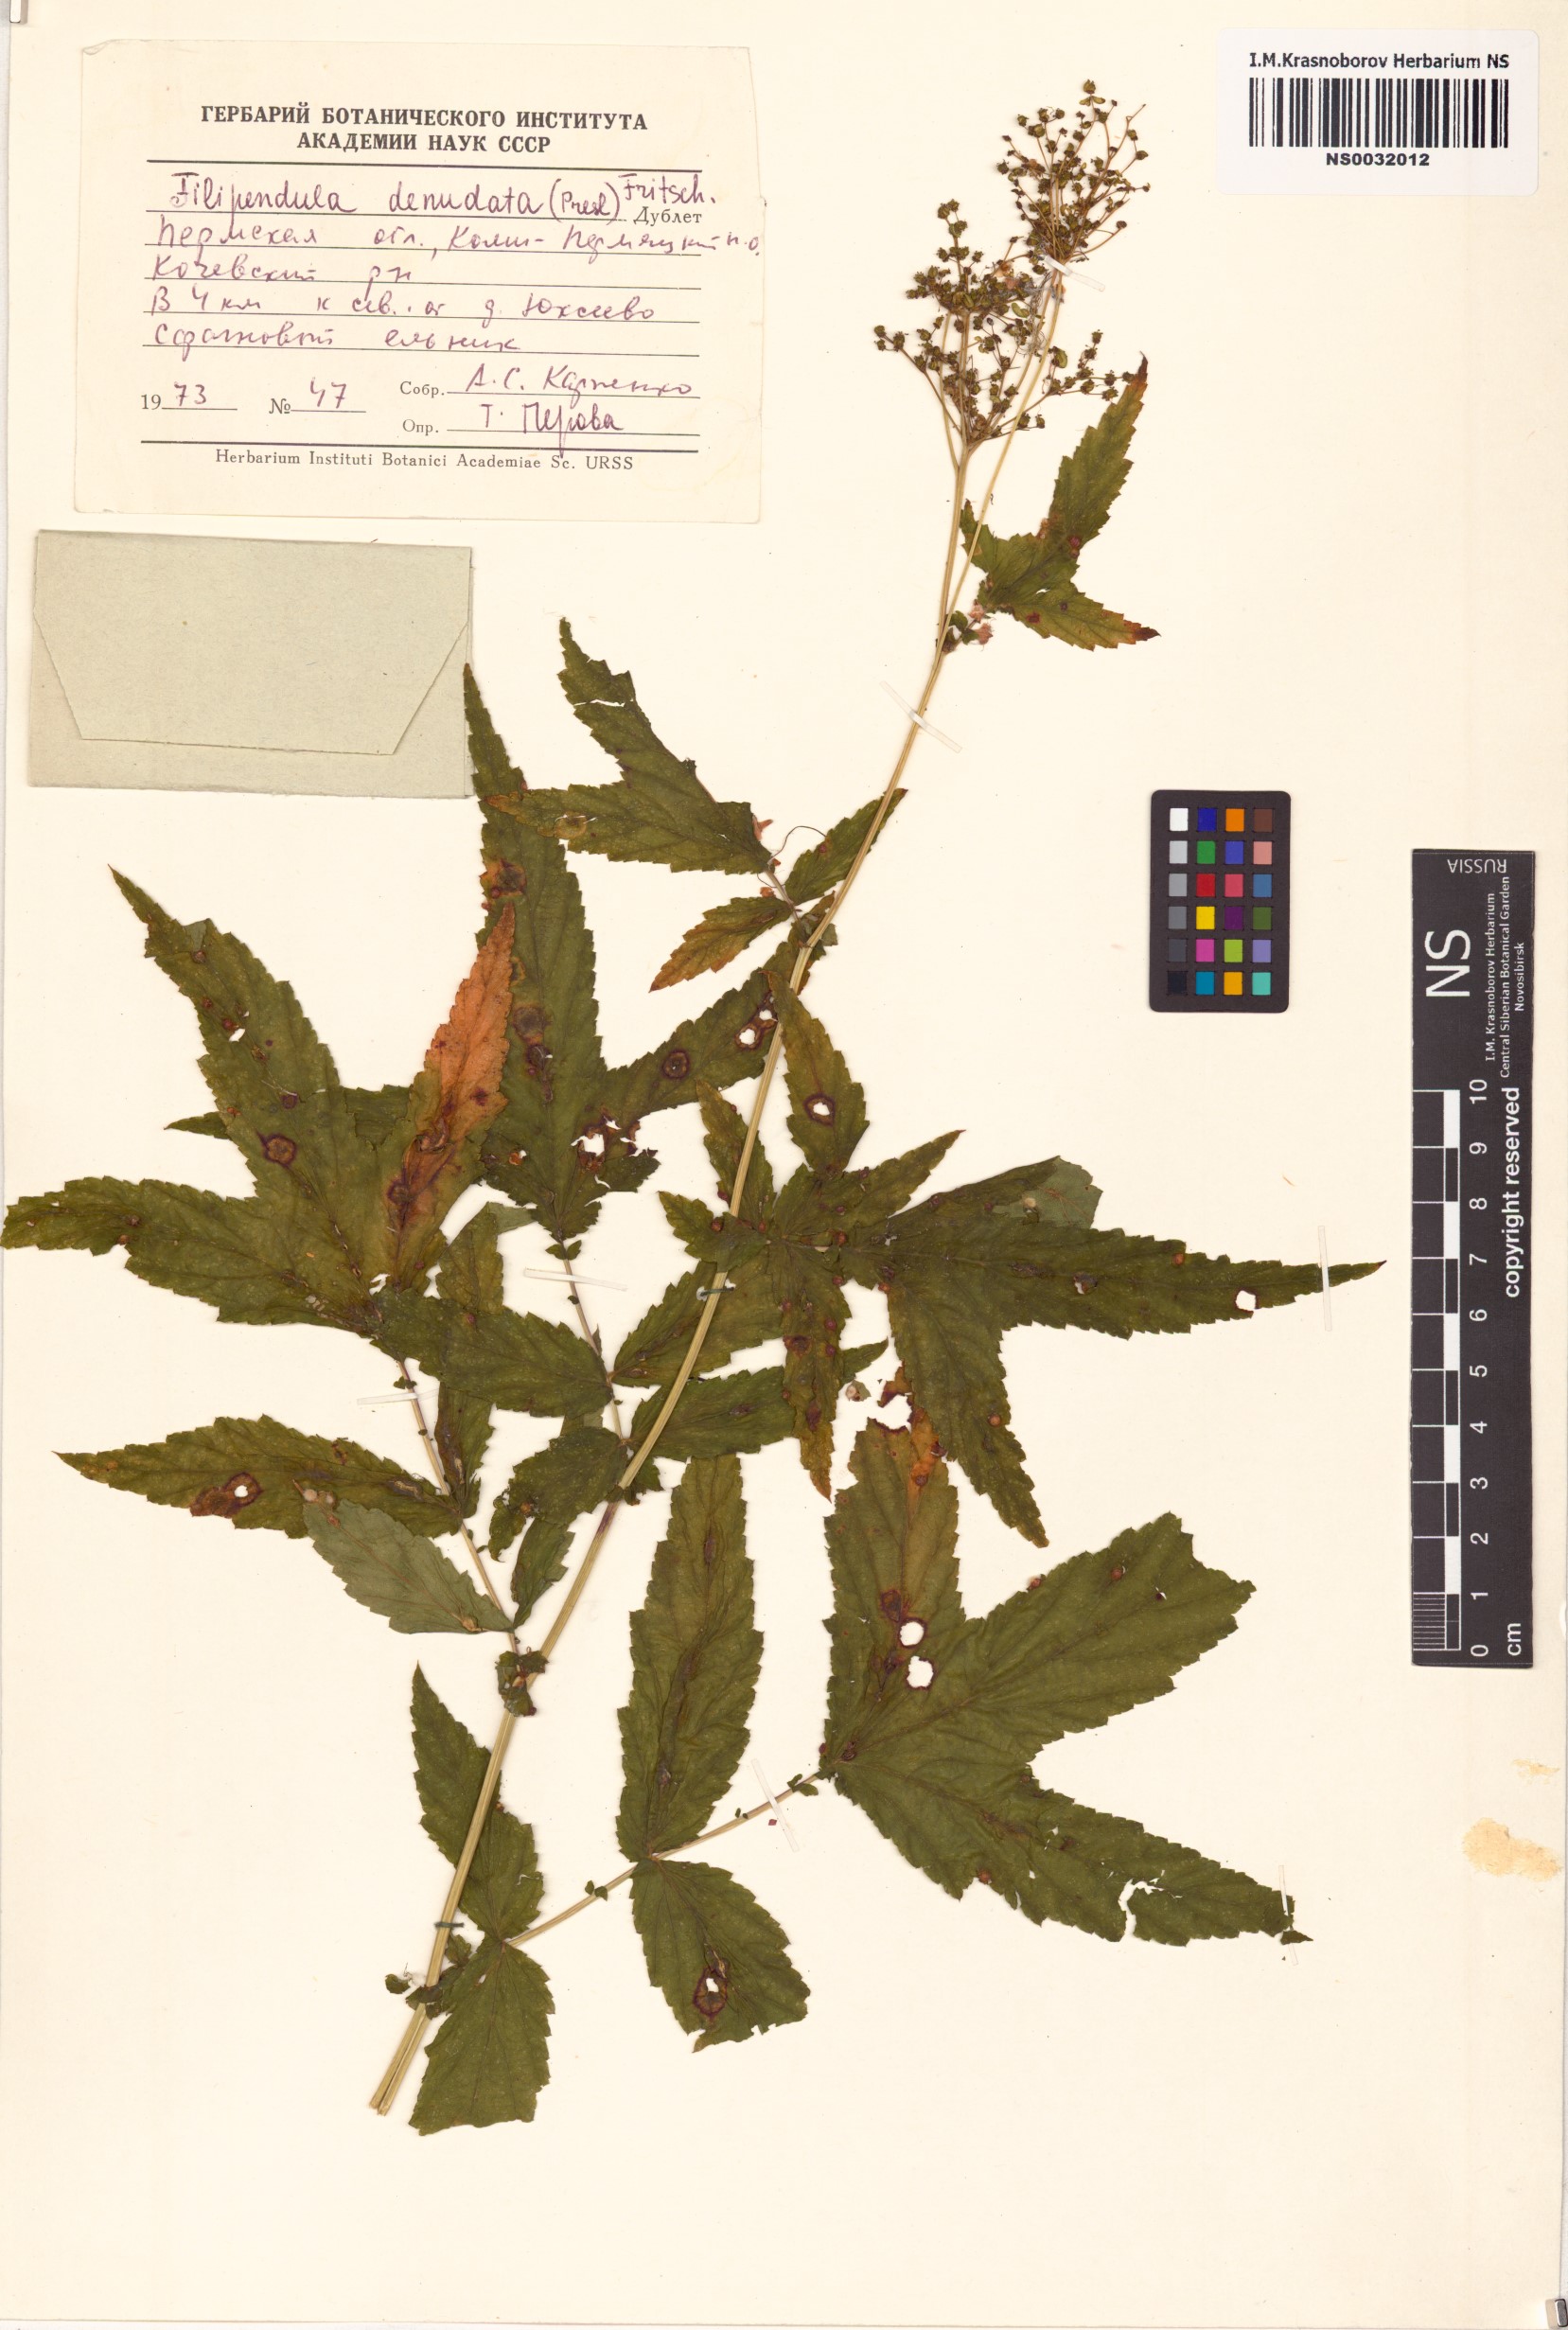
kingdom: Plantae
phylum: Tracheophyta
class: Magnoliopsida
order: Rosales
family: Rosaceae
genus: Filipendula
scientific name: Filipendula ulmaria
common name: Meadowsweet
